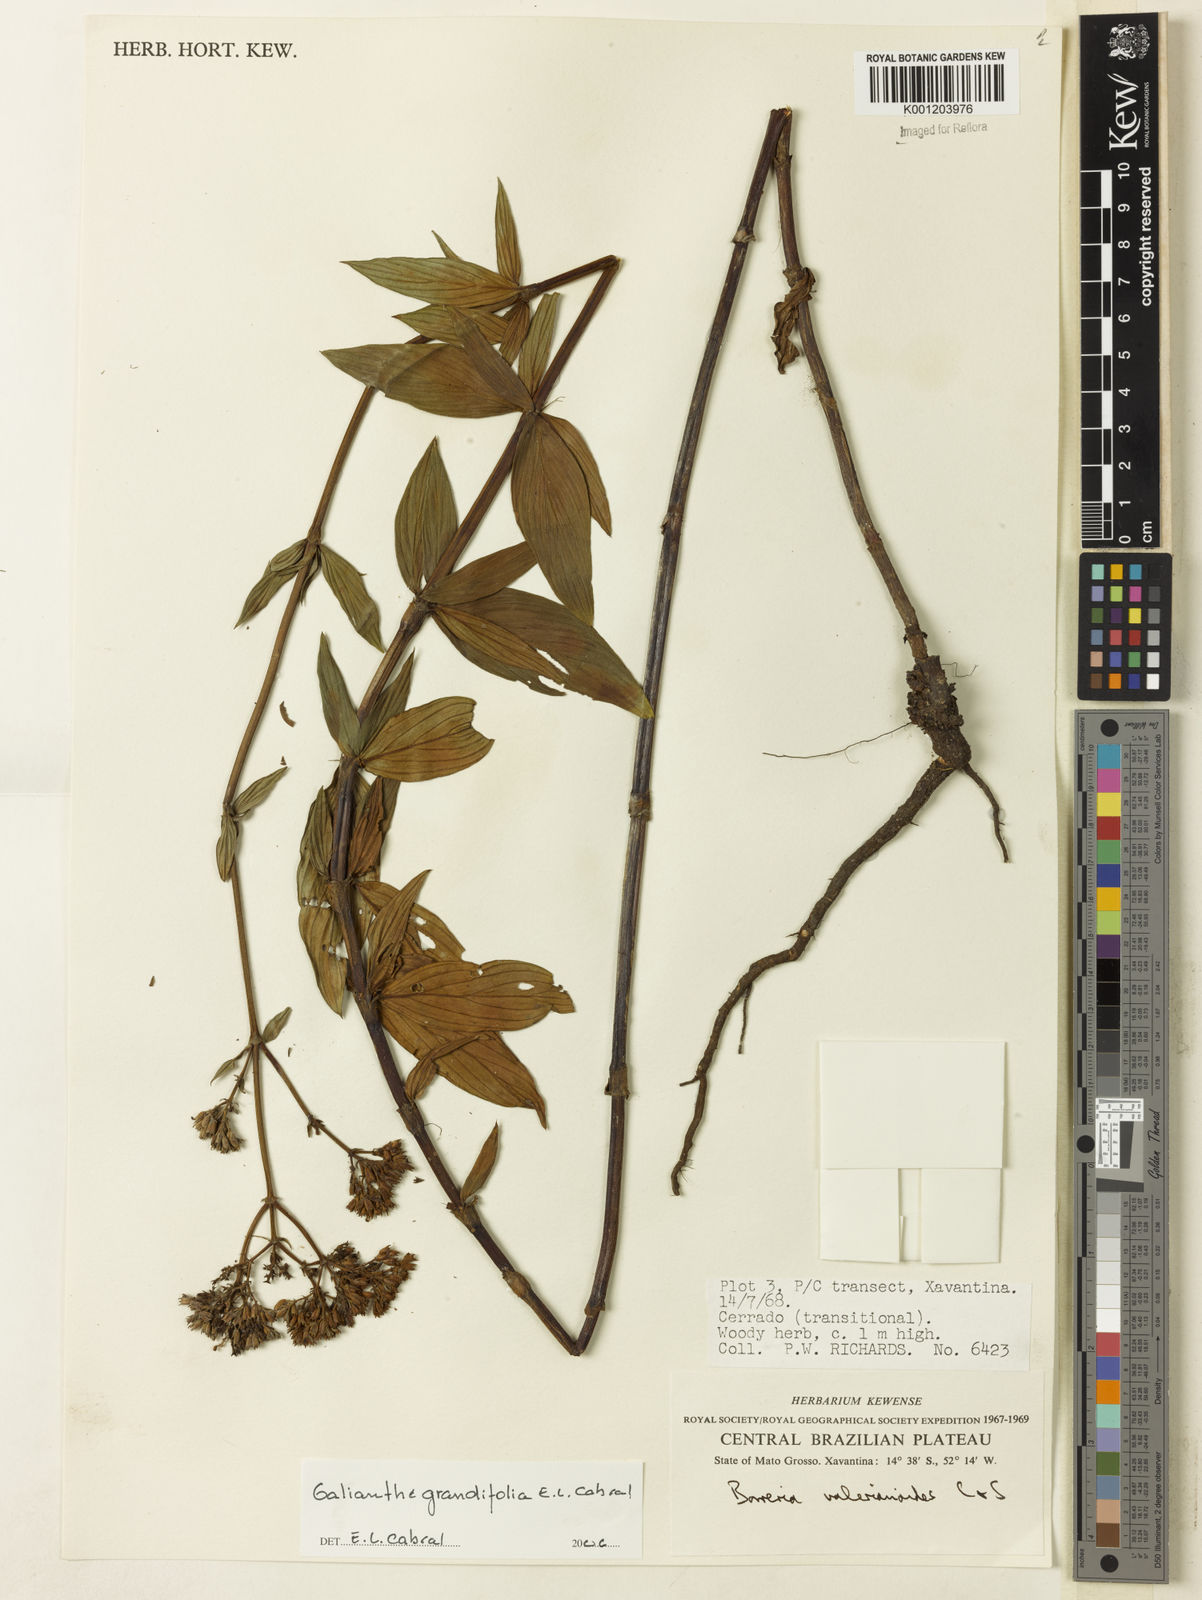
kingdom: Plantae
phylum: Tracheophyta
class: Magnoliopsida
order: Gentianales
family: Rubiaceae
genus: Galianthe
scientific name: Galianthe grandifolia
